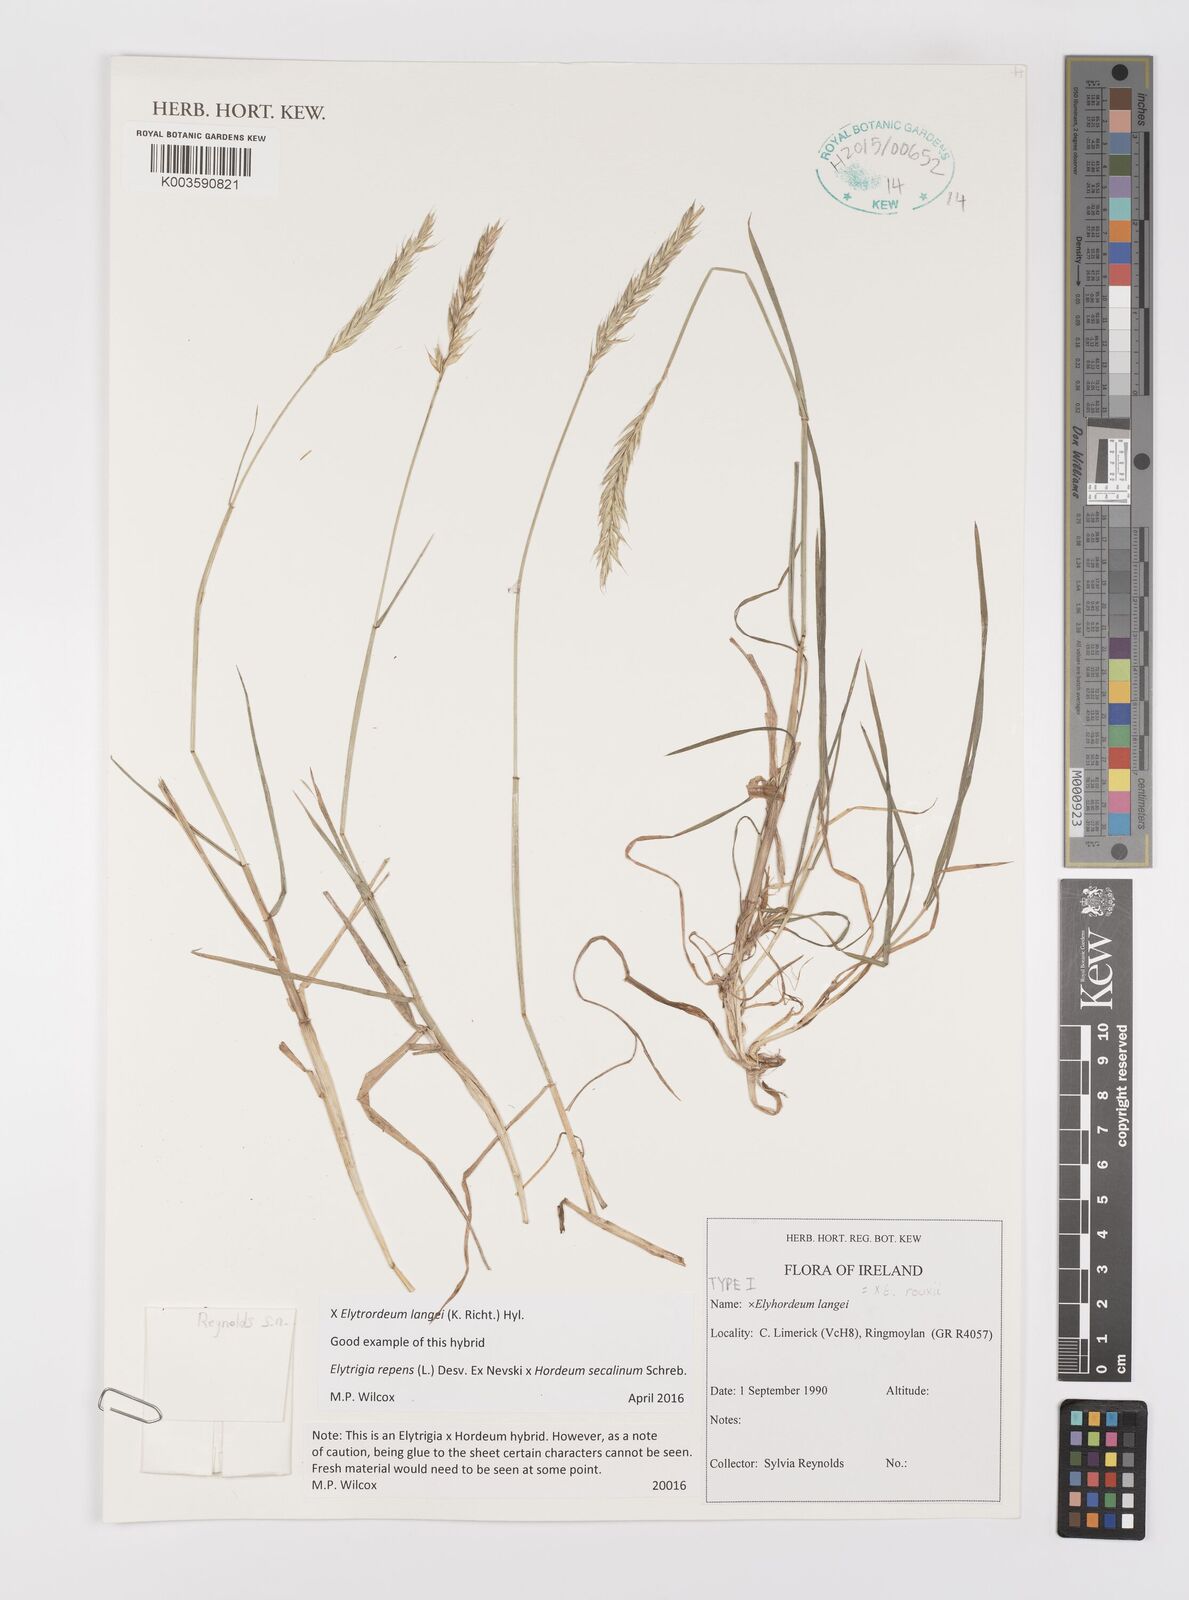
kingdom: Plantae
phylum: Tracheophyta
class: Liliopsida
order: Poales
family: Poaceae
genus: Elyhordeum
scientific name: Elyhordeum langei
